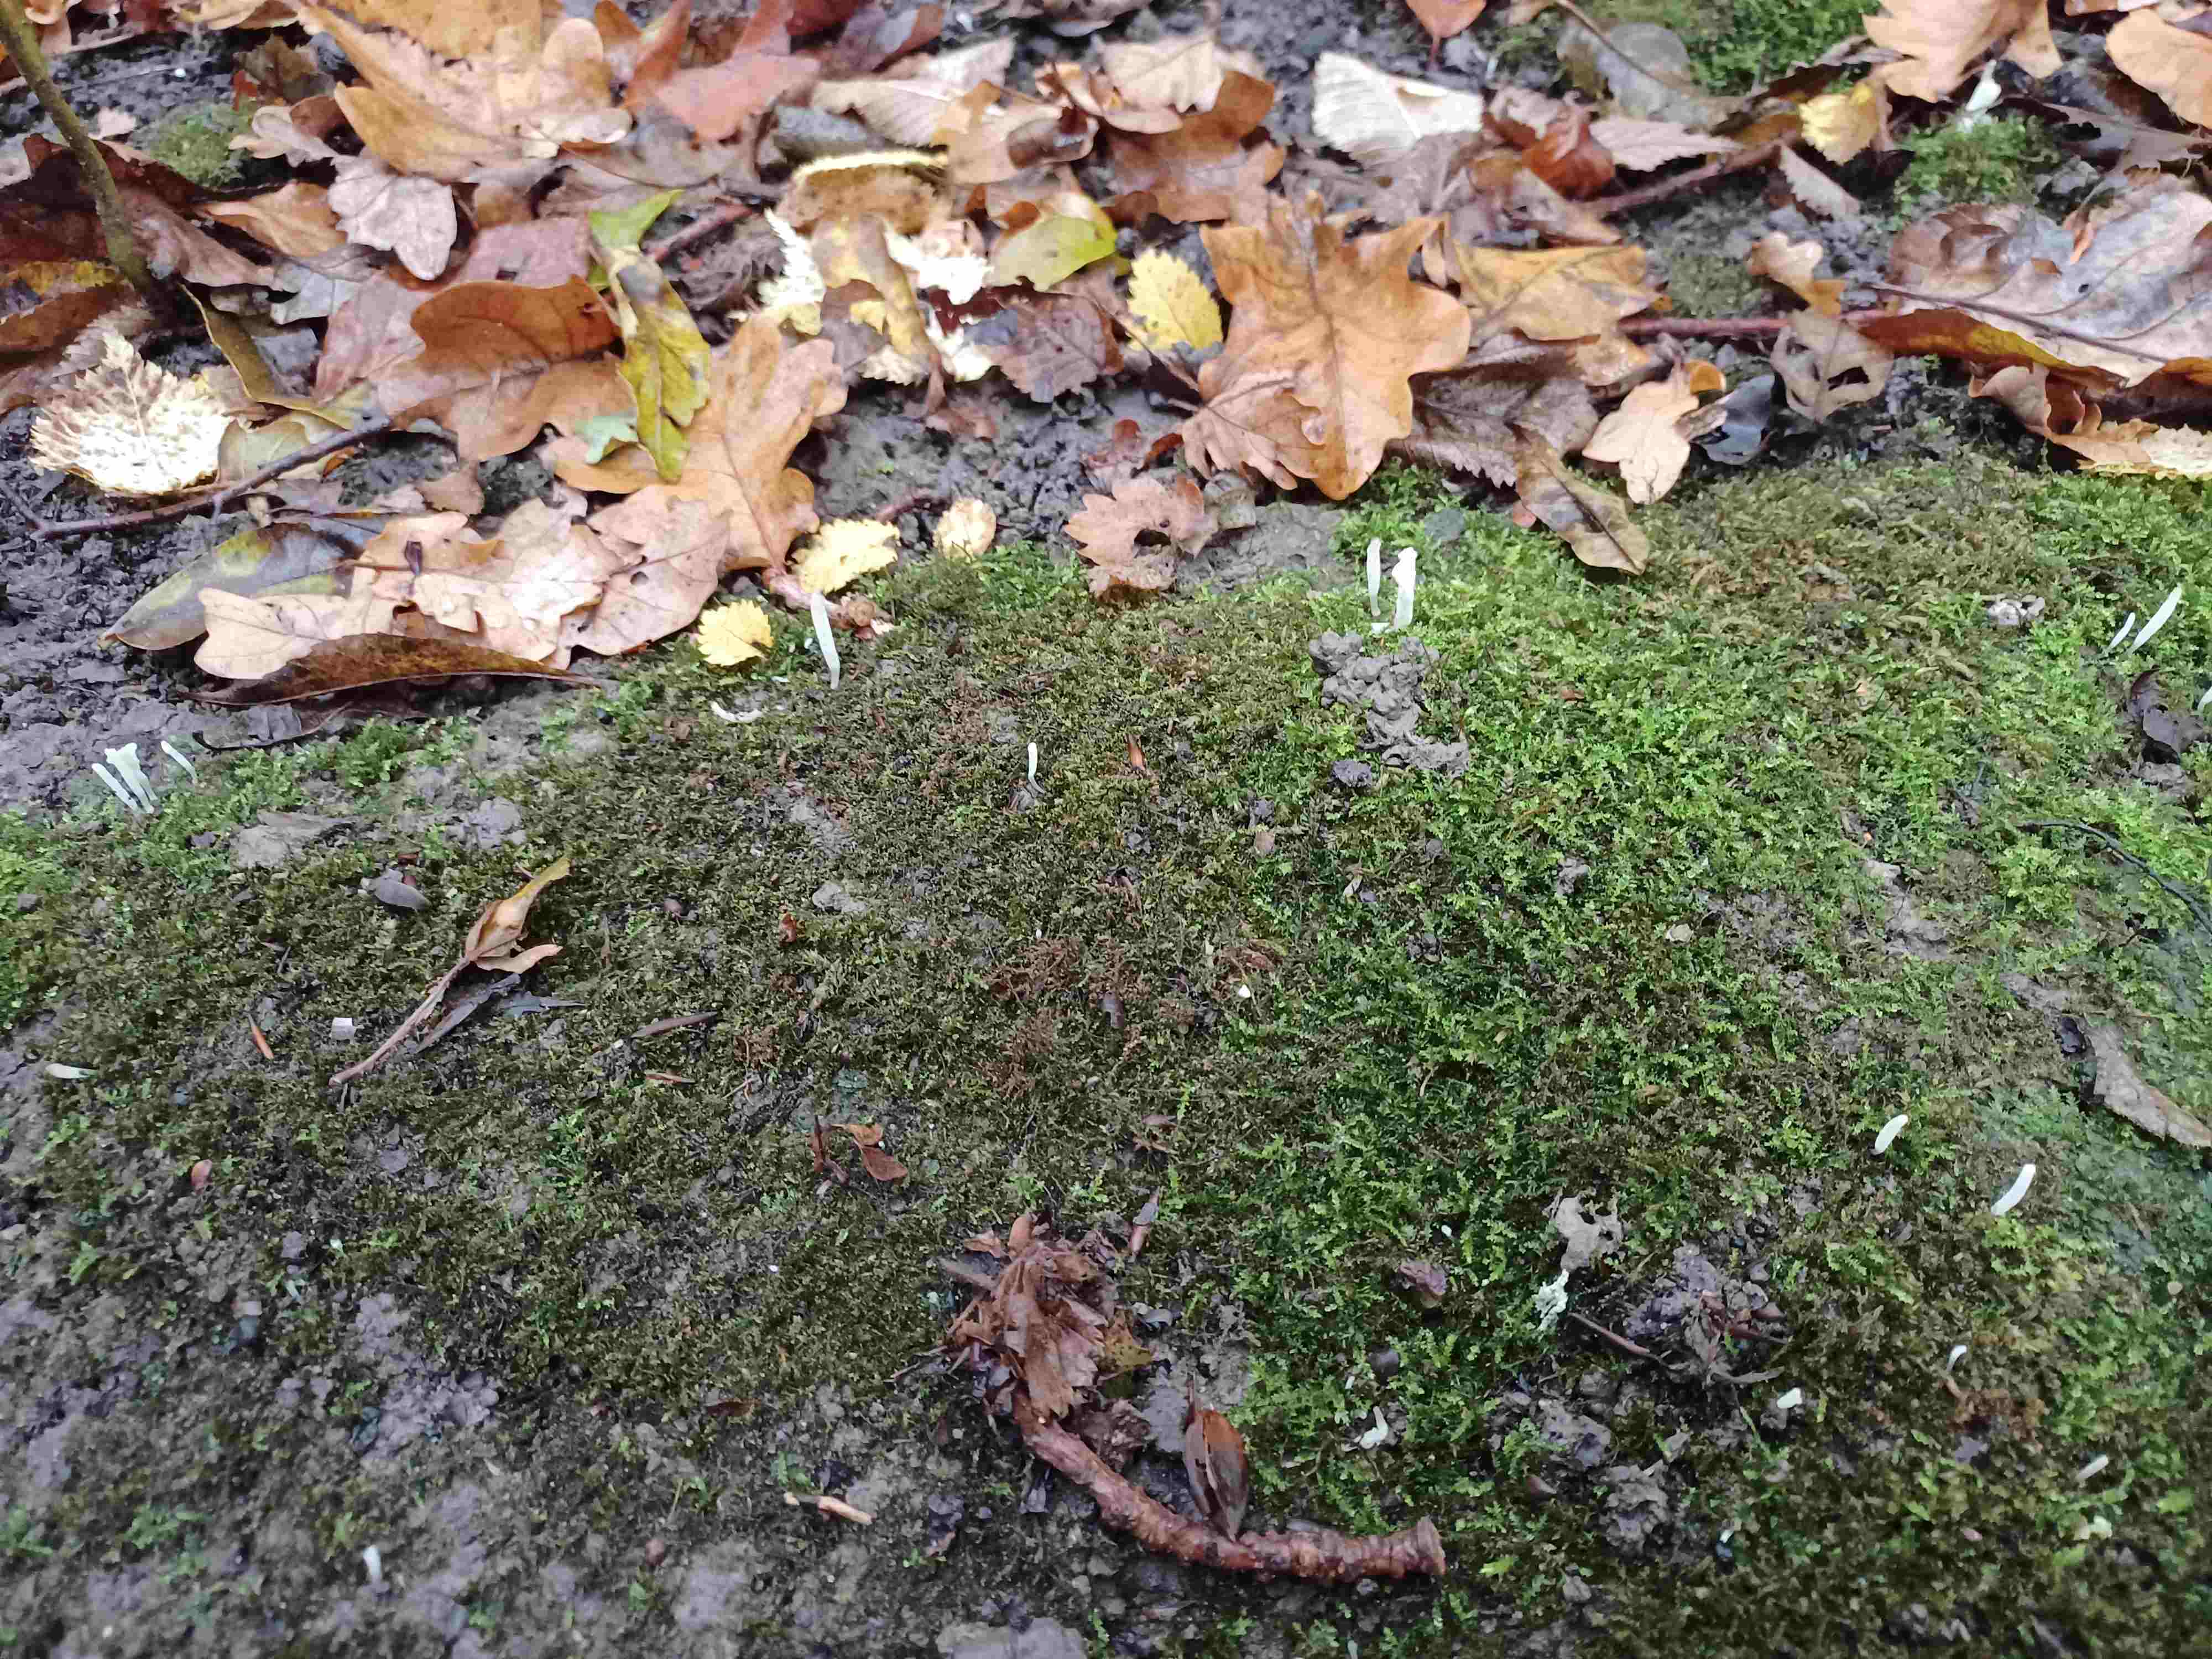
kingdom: Fungi
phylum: Basidiomycota
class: Agaricomycetes
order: Agaricales
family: Clavariaceae
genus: Clavaria
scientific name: Clavaria falcata
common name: hvid køllesvamp
